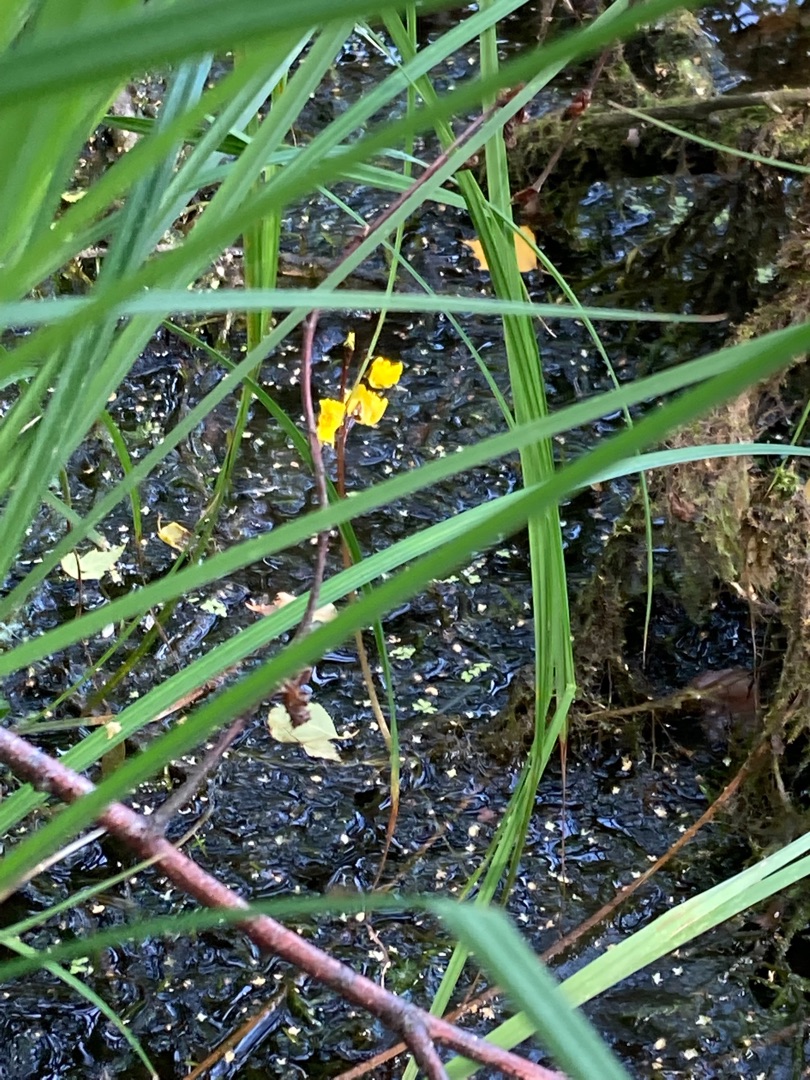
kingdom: Plantae
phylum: Tracheophyta
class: Magnoliopsida
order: Lamiales
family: Lentibulariaceae
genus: Utricularia
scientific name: Utricularia vulgaris
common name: Almindelig blærerod
